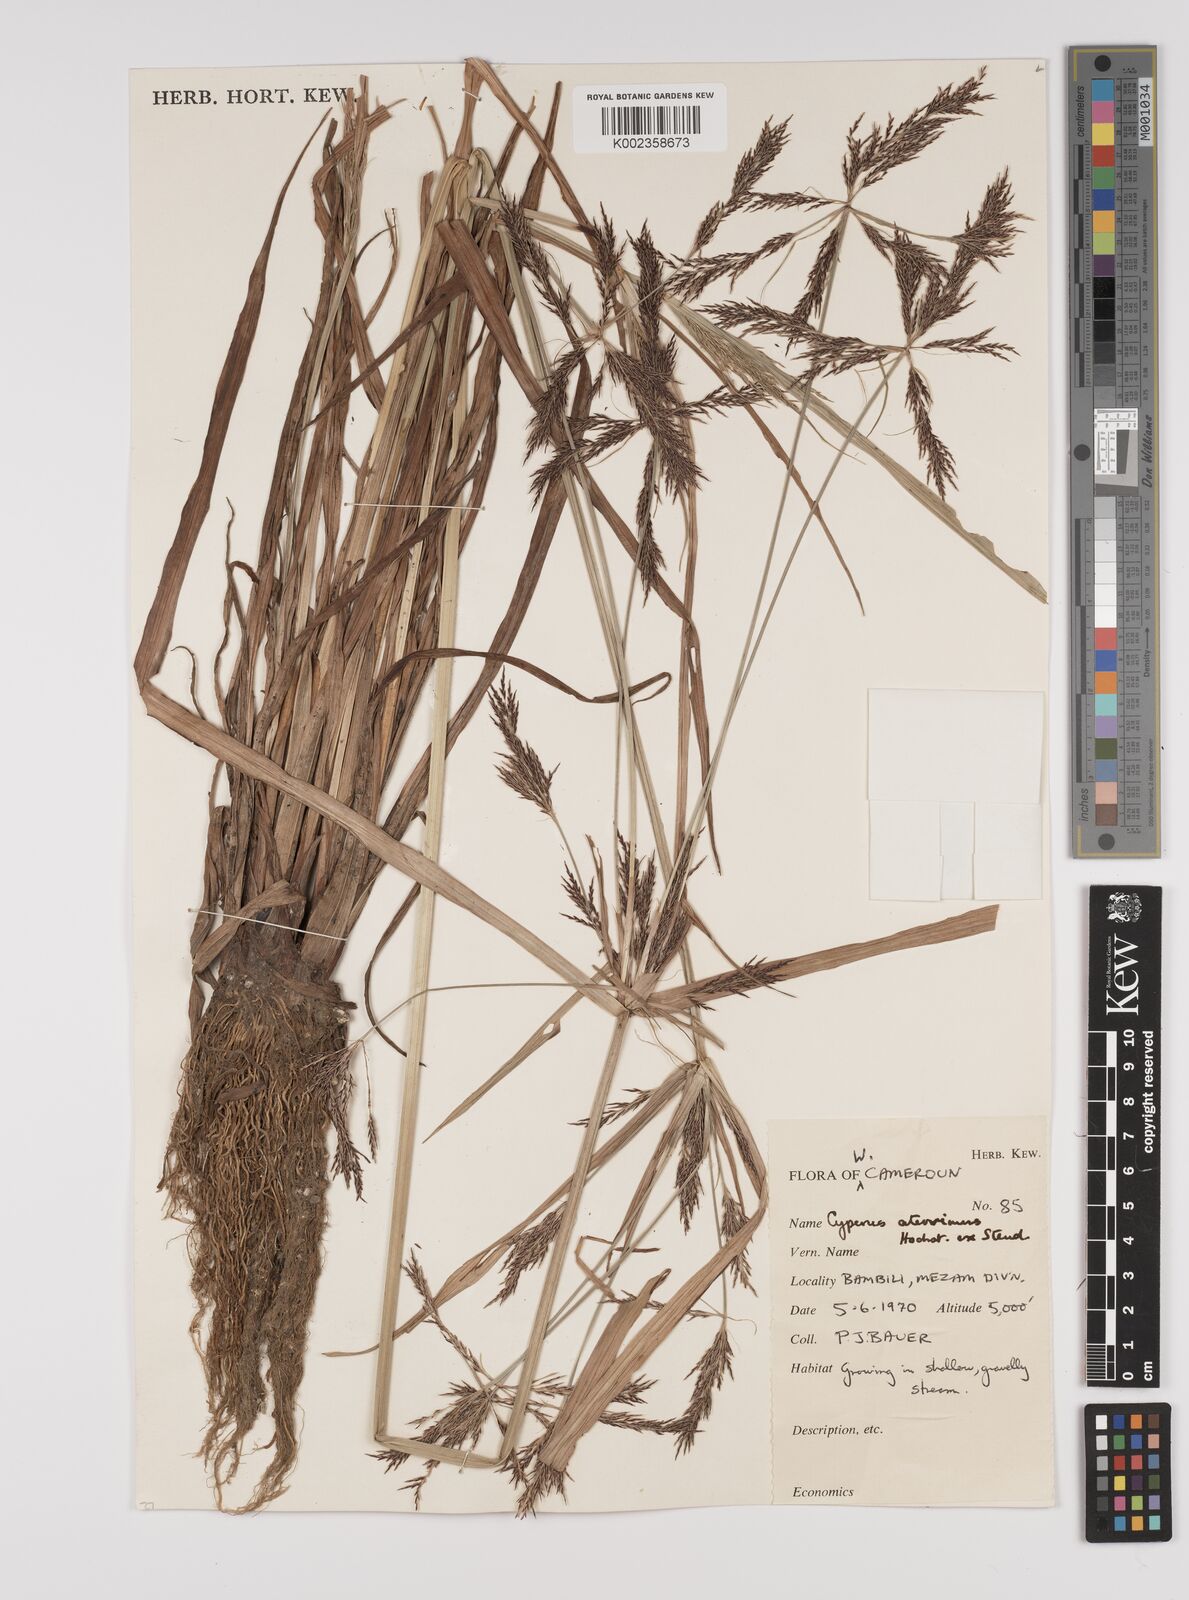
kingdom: Plantae
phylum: Tracheophyta
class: Liliopsida
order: Poales
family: Cyperaceae
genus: Cyperus
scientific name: Cyperus aterrimus
